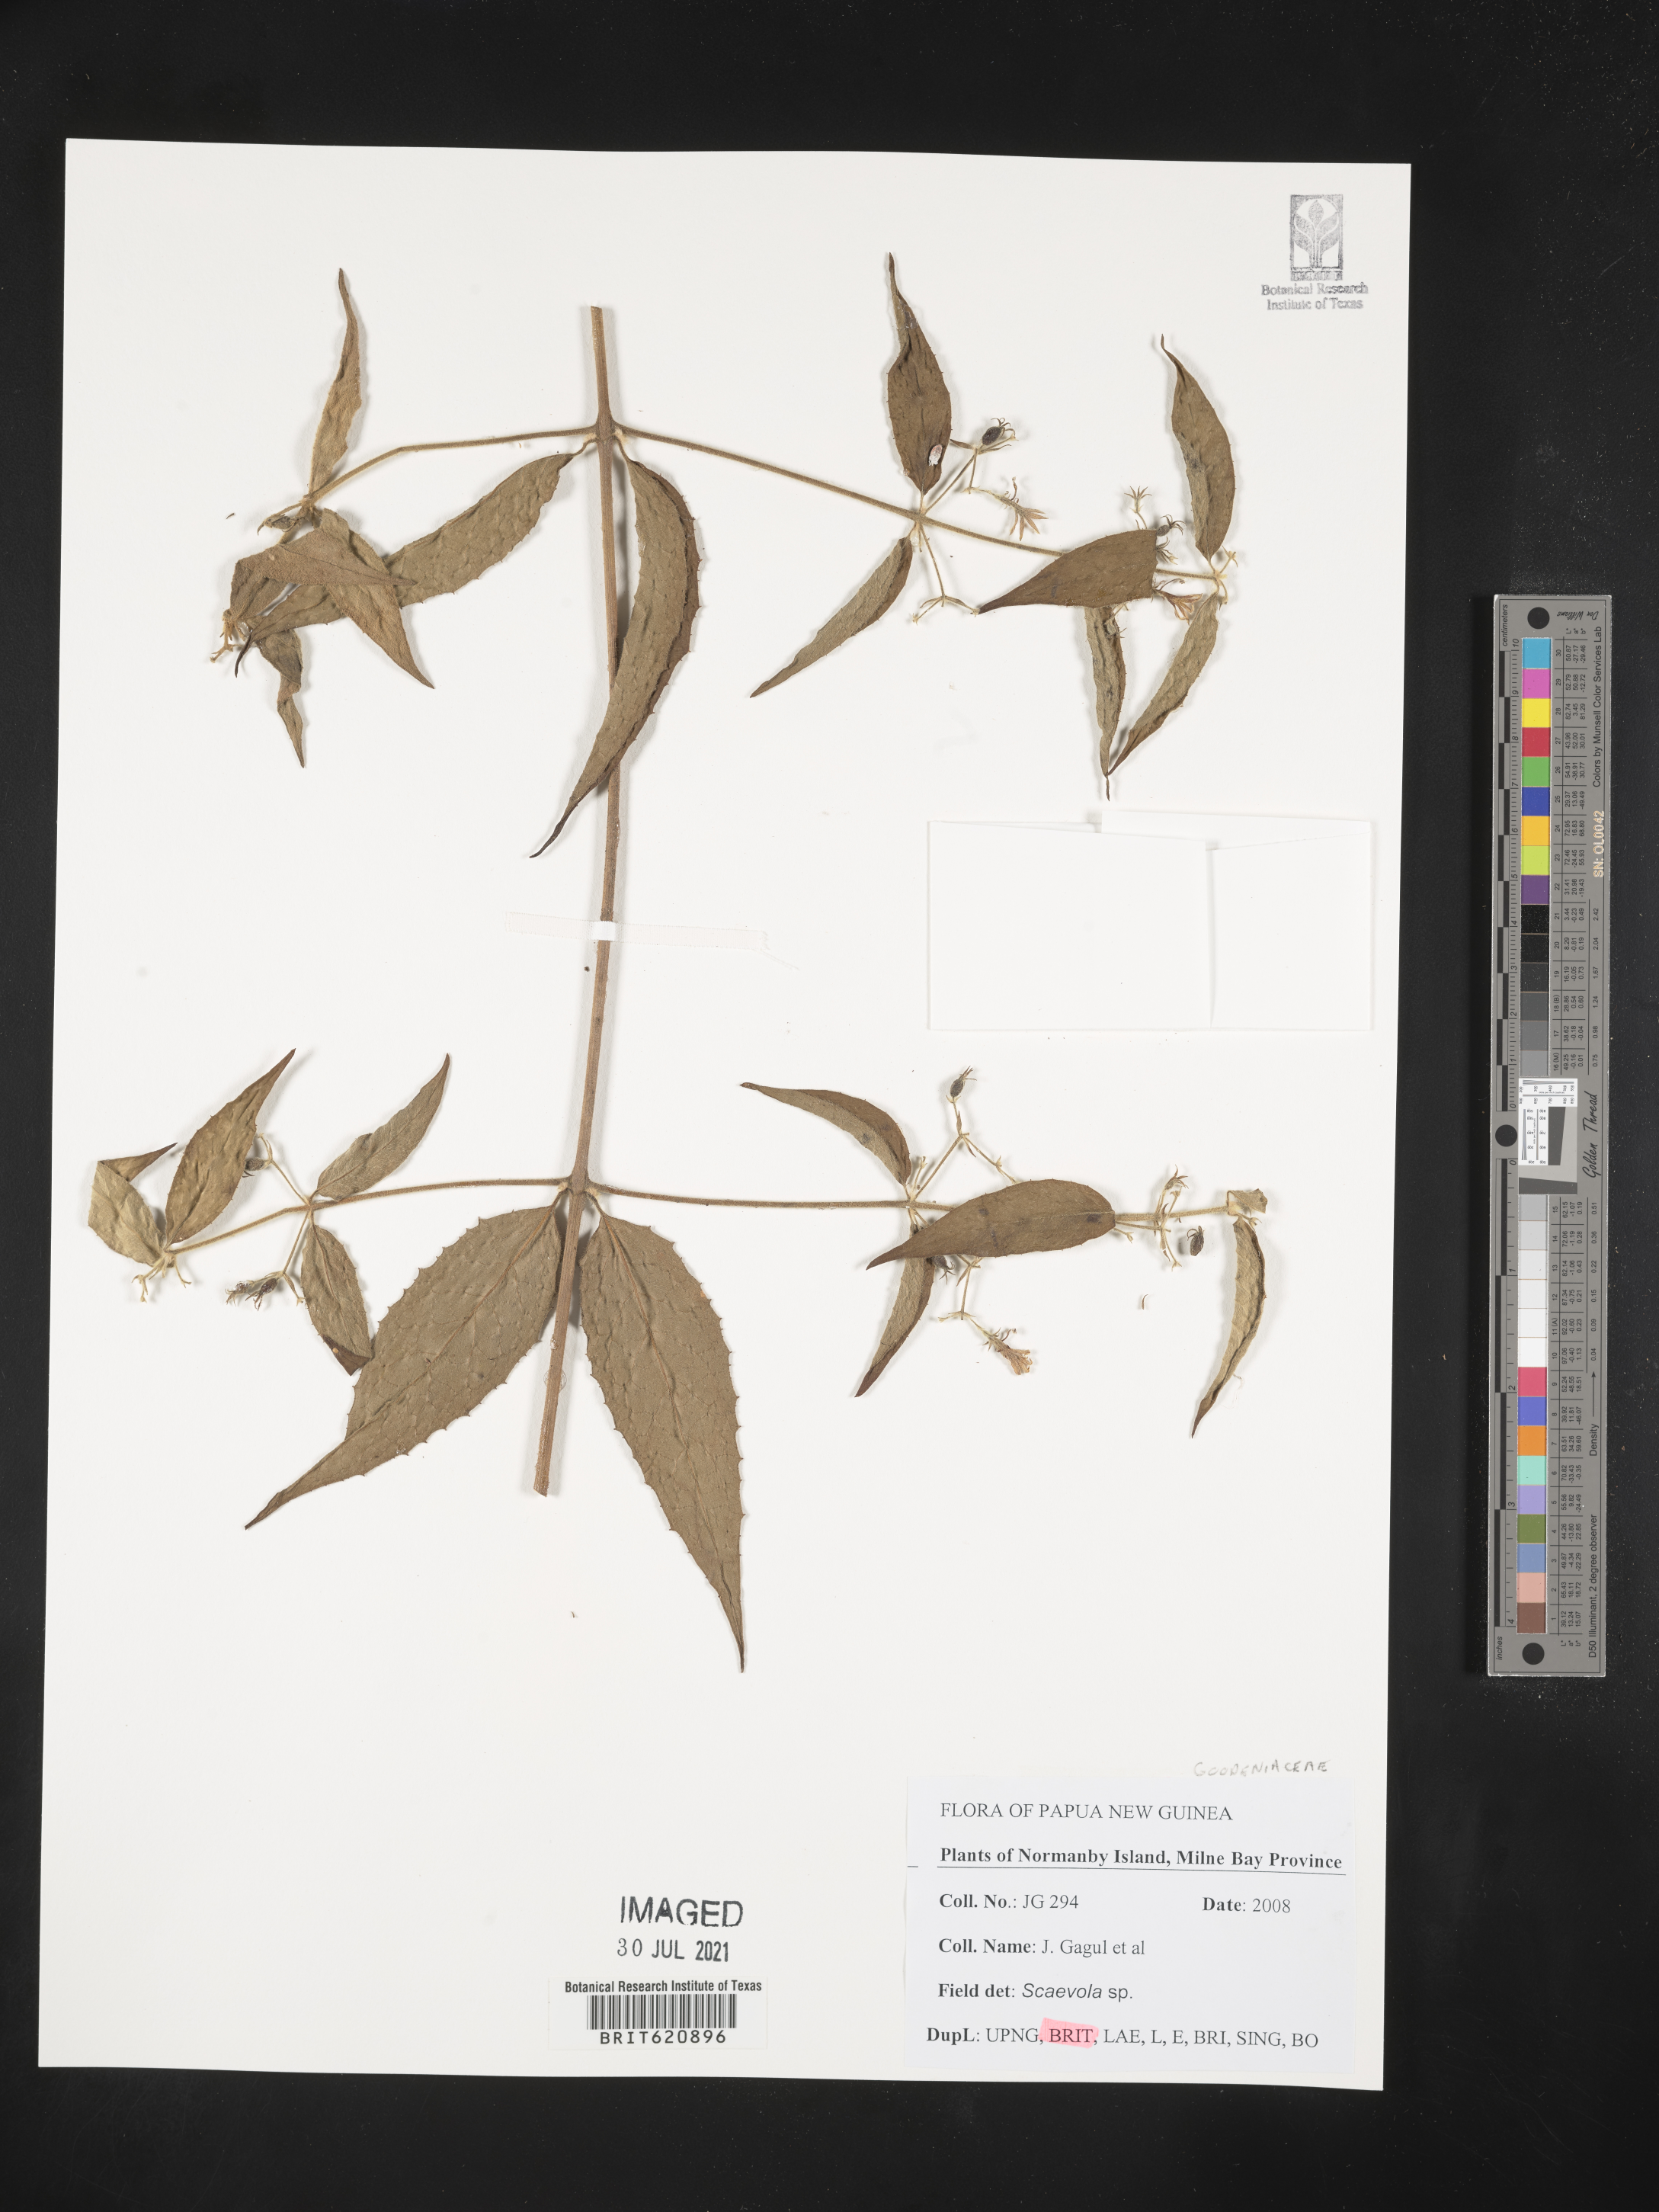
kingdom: Plantae
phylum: Tracheophyta
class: Magnoliopsida
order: Asterales
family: Goodeniaceae
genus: Scaevola
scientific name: Scaevola
